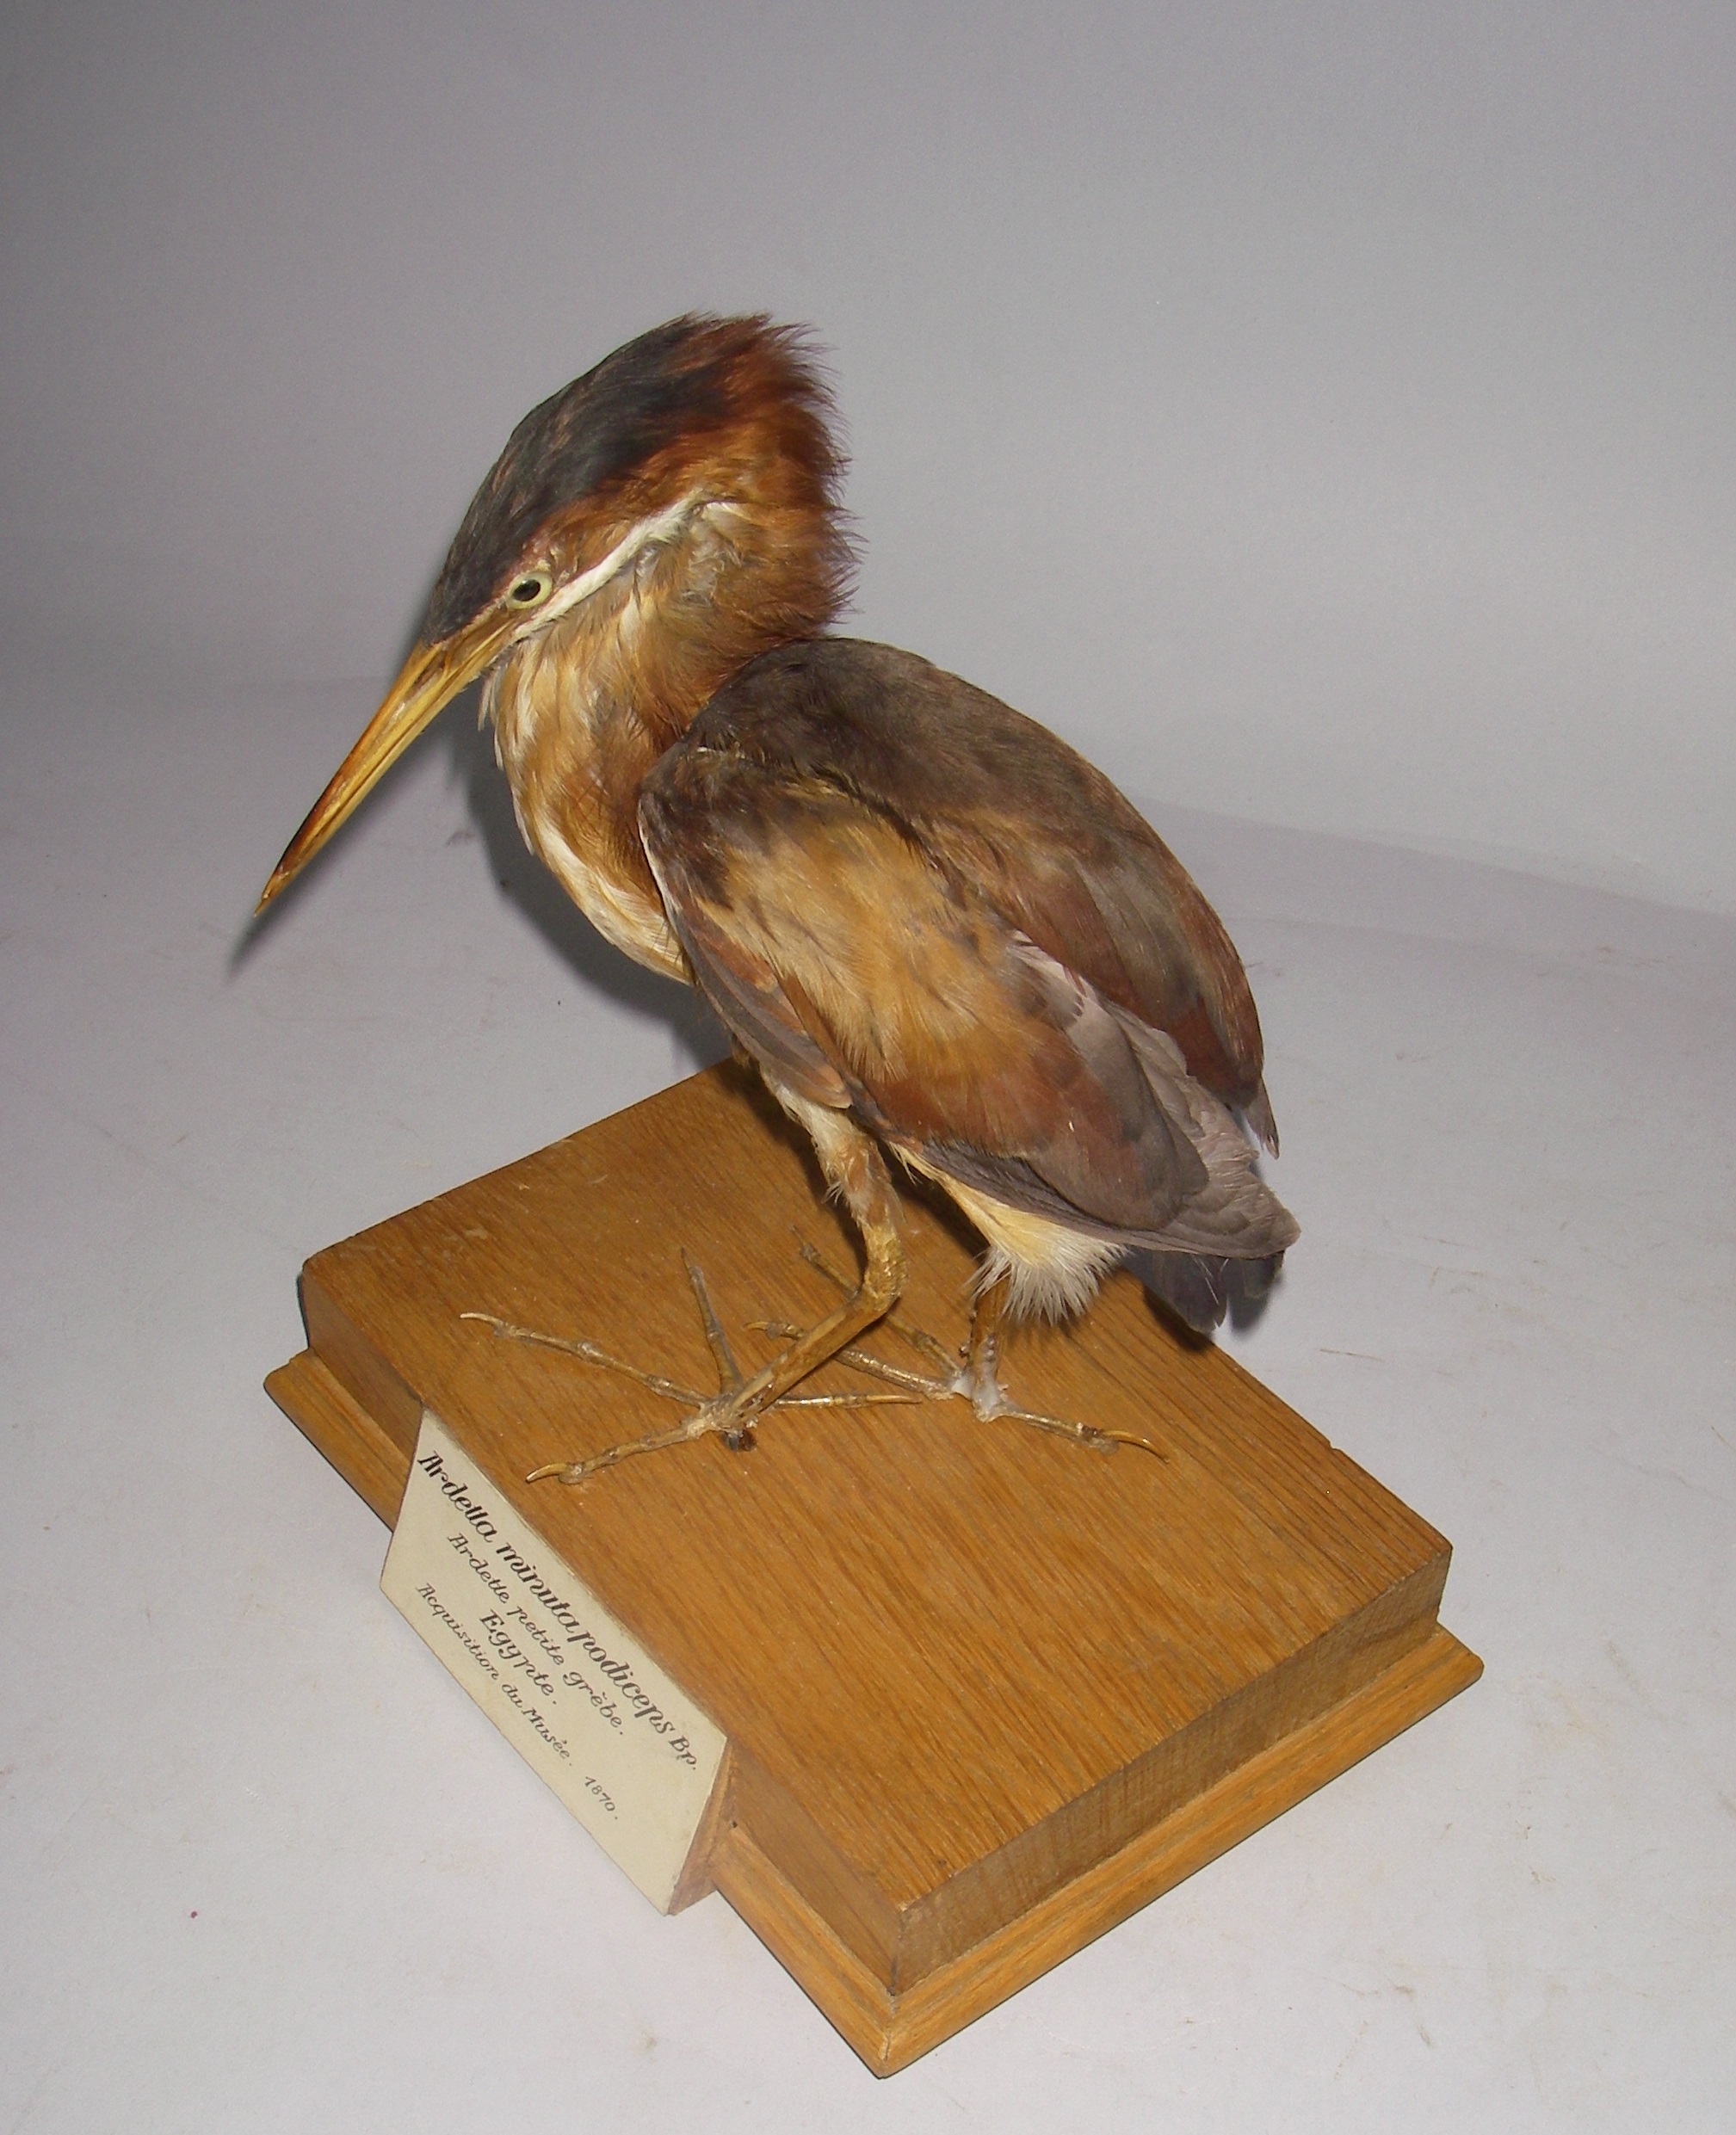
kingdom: Animalia
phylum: Chordata
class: Aves
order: Pelecaniformes
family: Ardeidae
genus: Ixobrychus
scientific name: Ixobrychus minutus
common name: Little bittern
